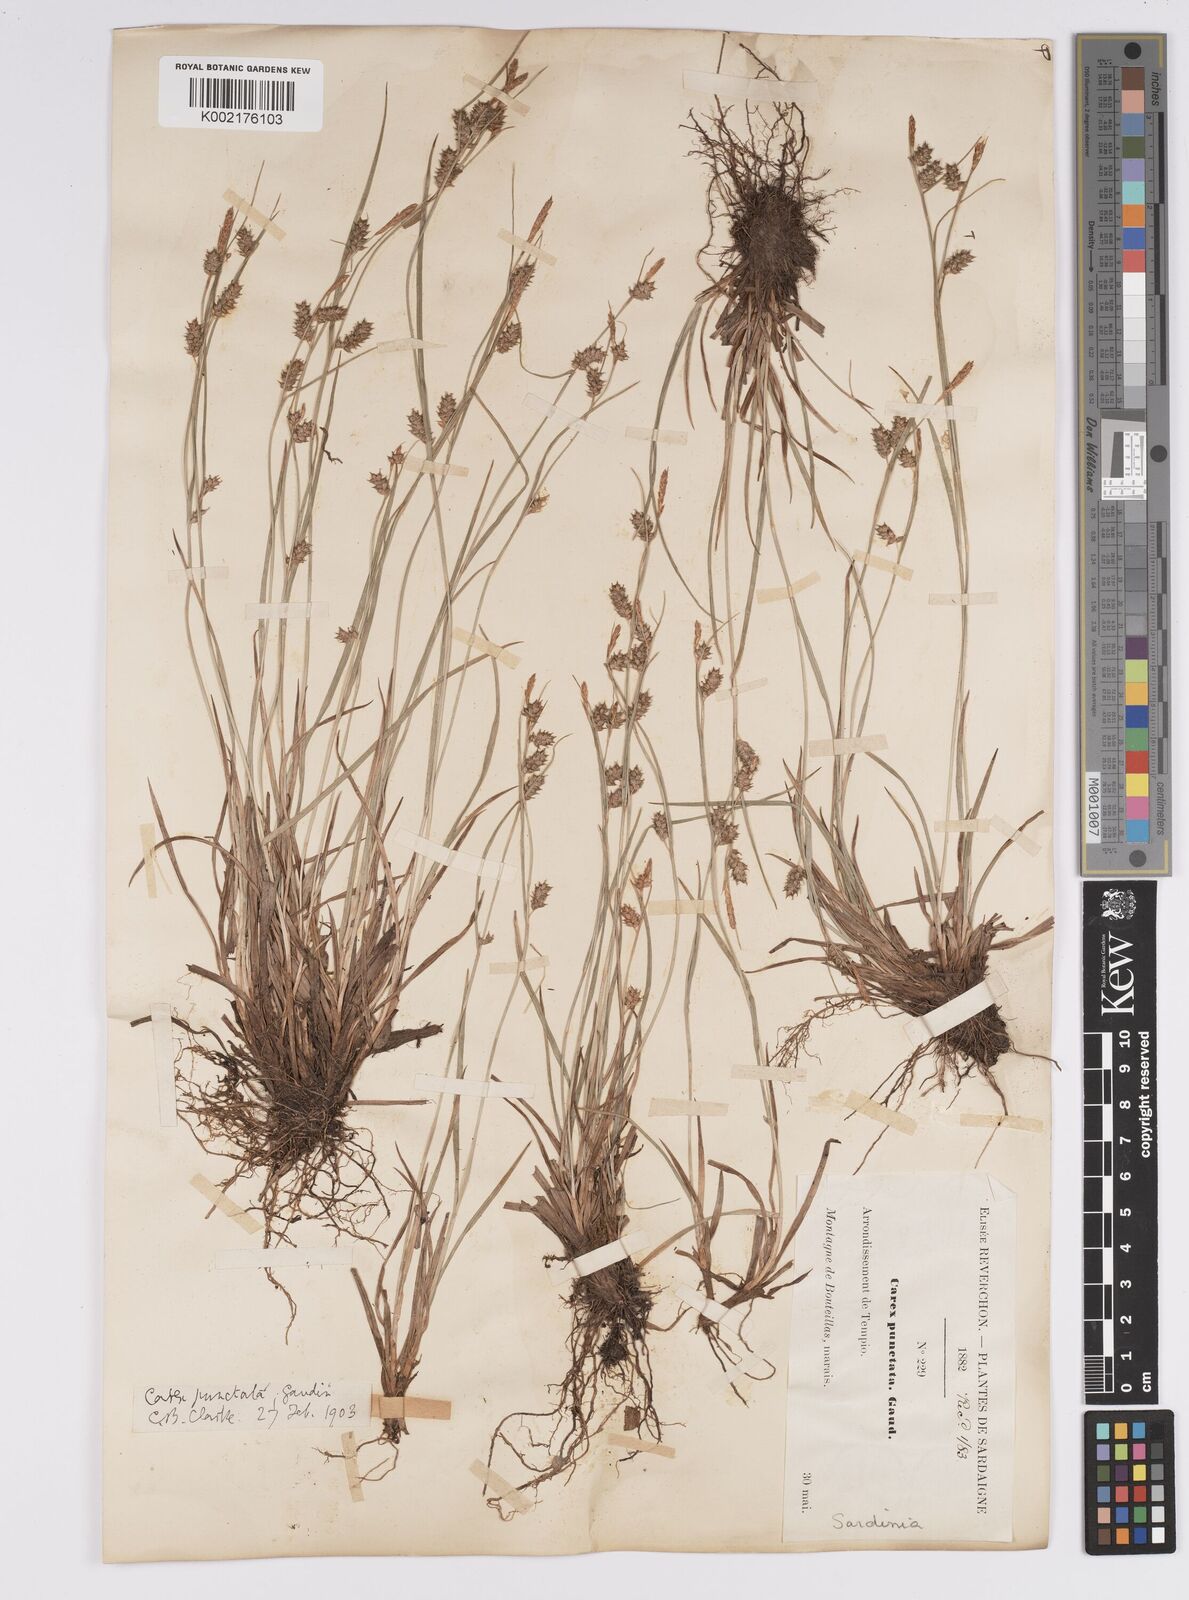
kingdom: Plantae
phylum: Tracheophyta
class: Liliopsida
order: Poales
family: Cyperaceae
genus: Carex
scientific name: Carex punctata
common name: Dotted sedge
